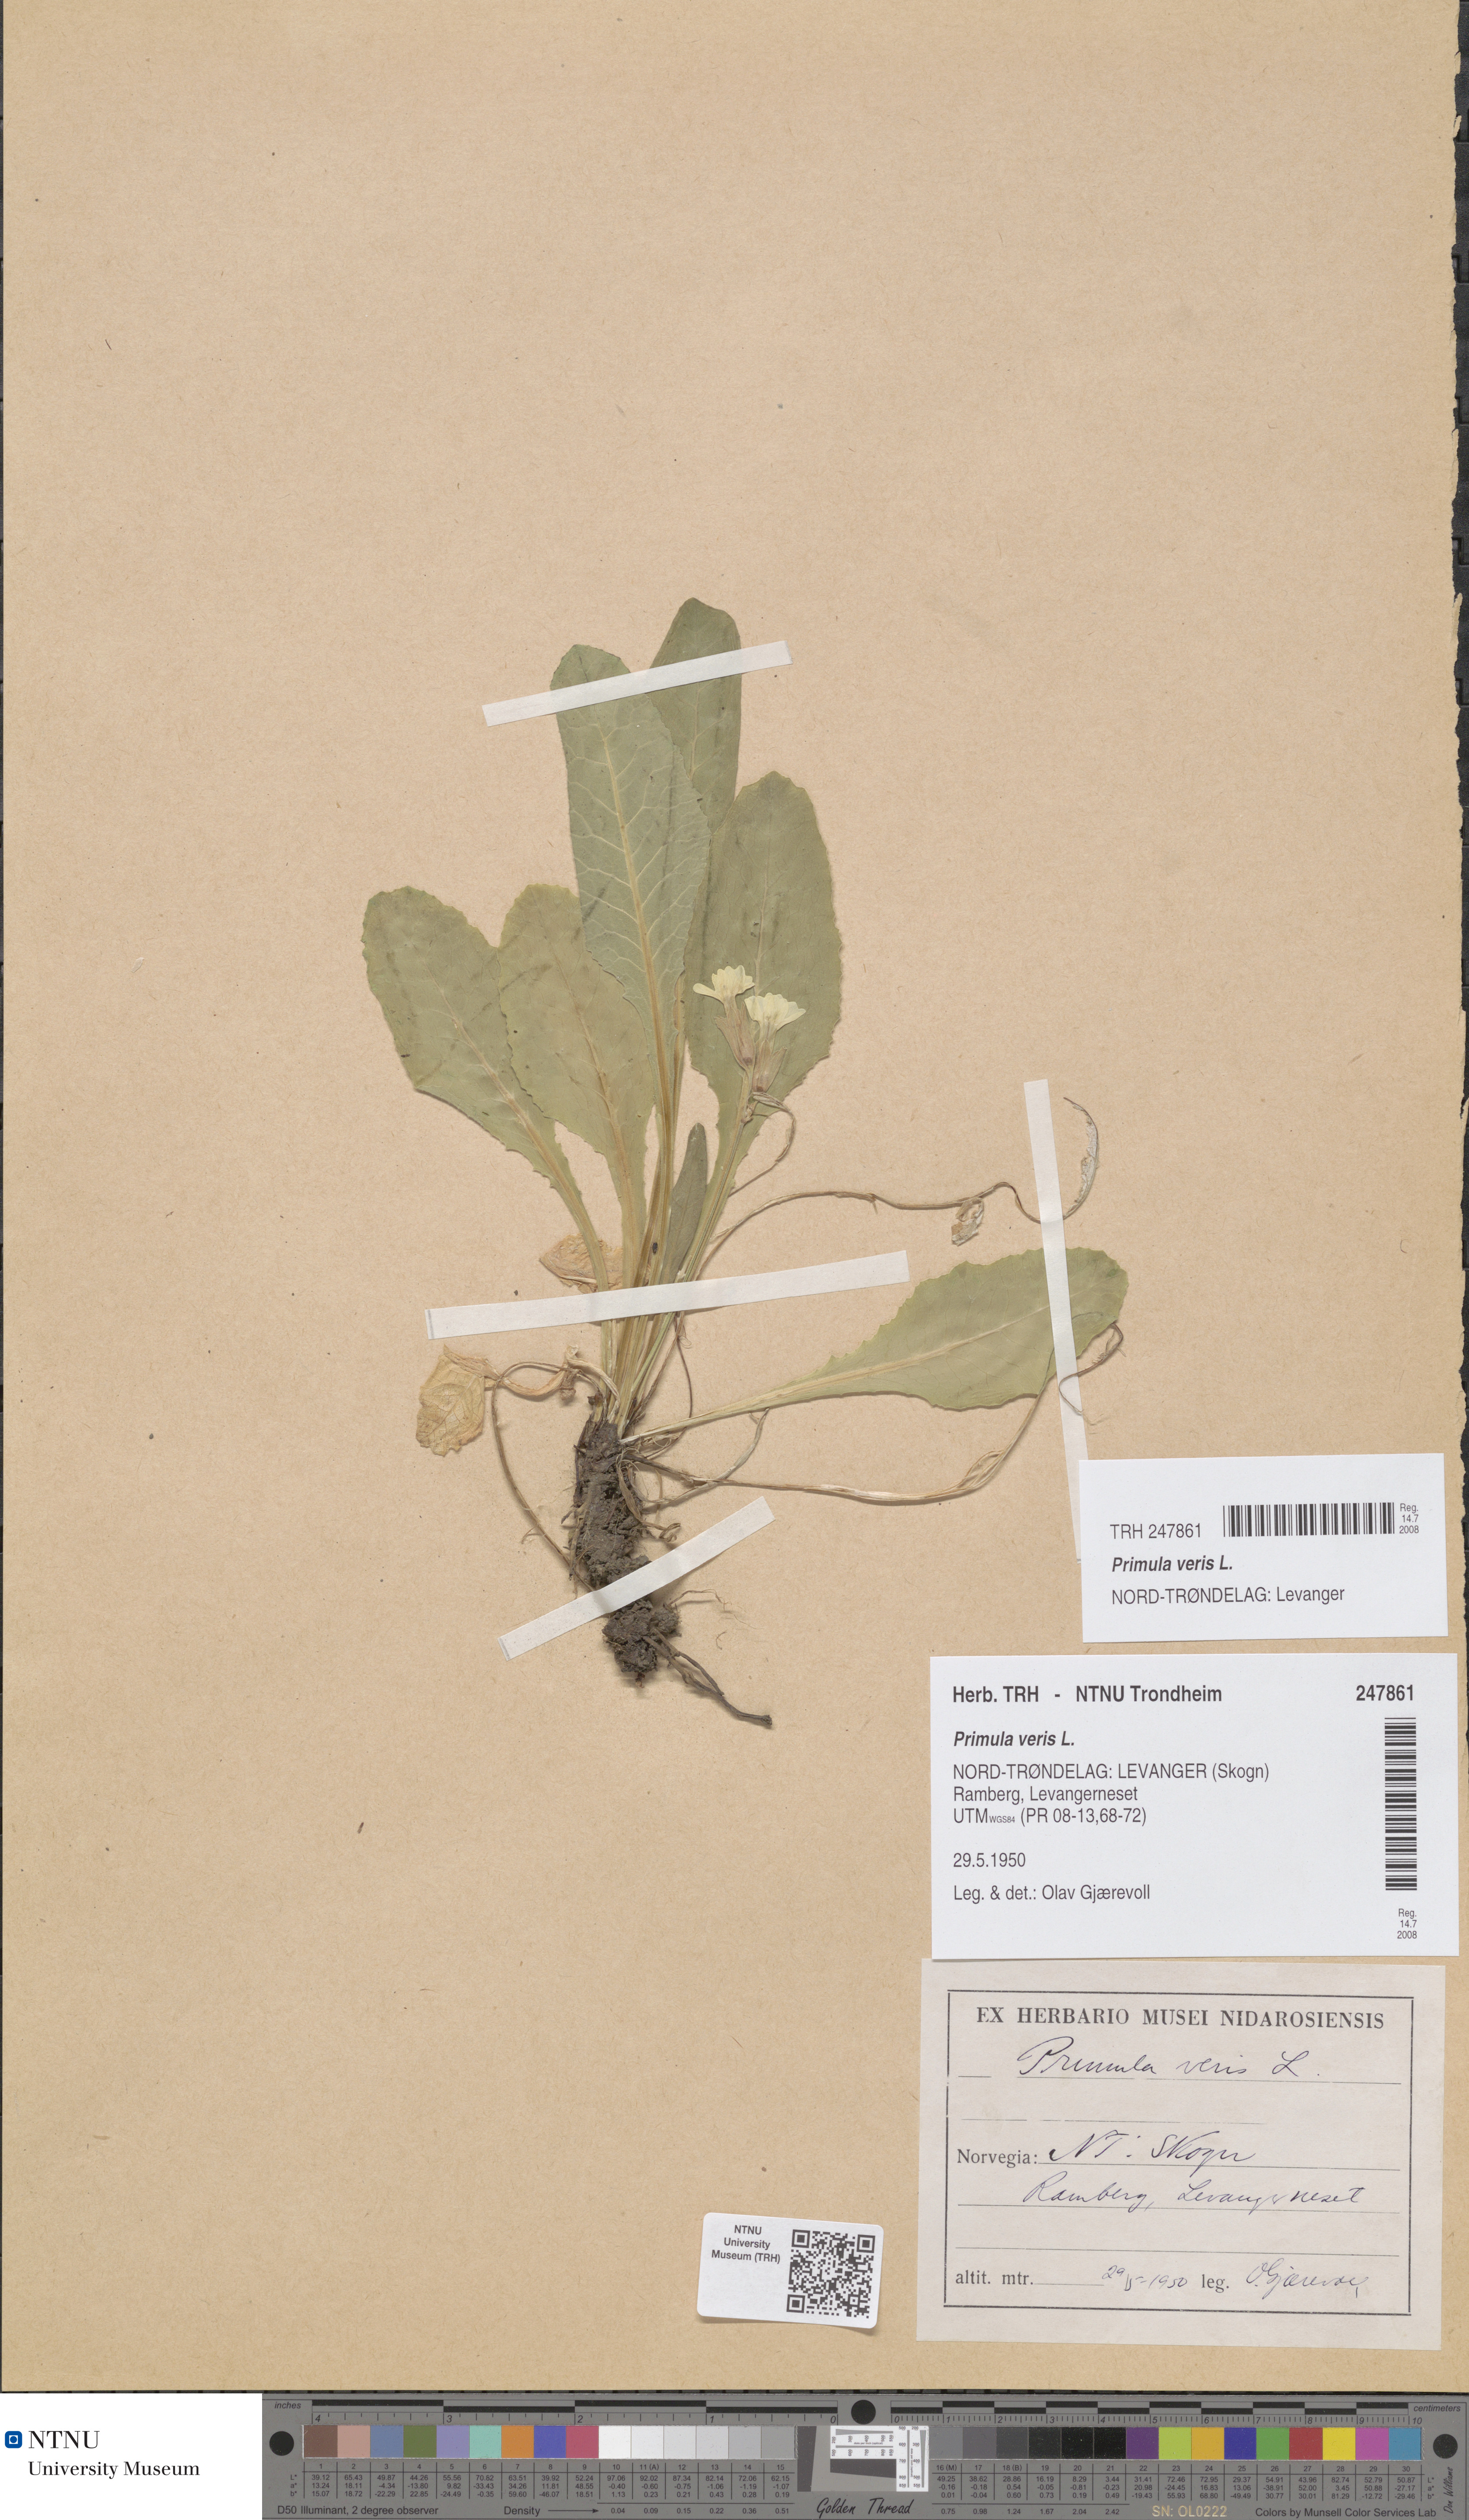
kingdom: Plantae
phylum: Tracheophyta
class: Magnoliopsida
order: Ericales
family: Primulaceae
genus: Primula
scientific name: Primula veris
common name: Cowslip
